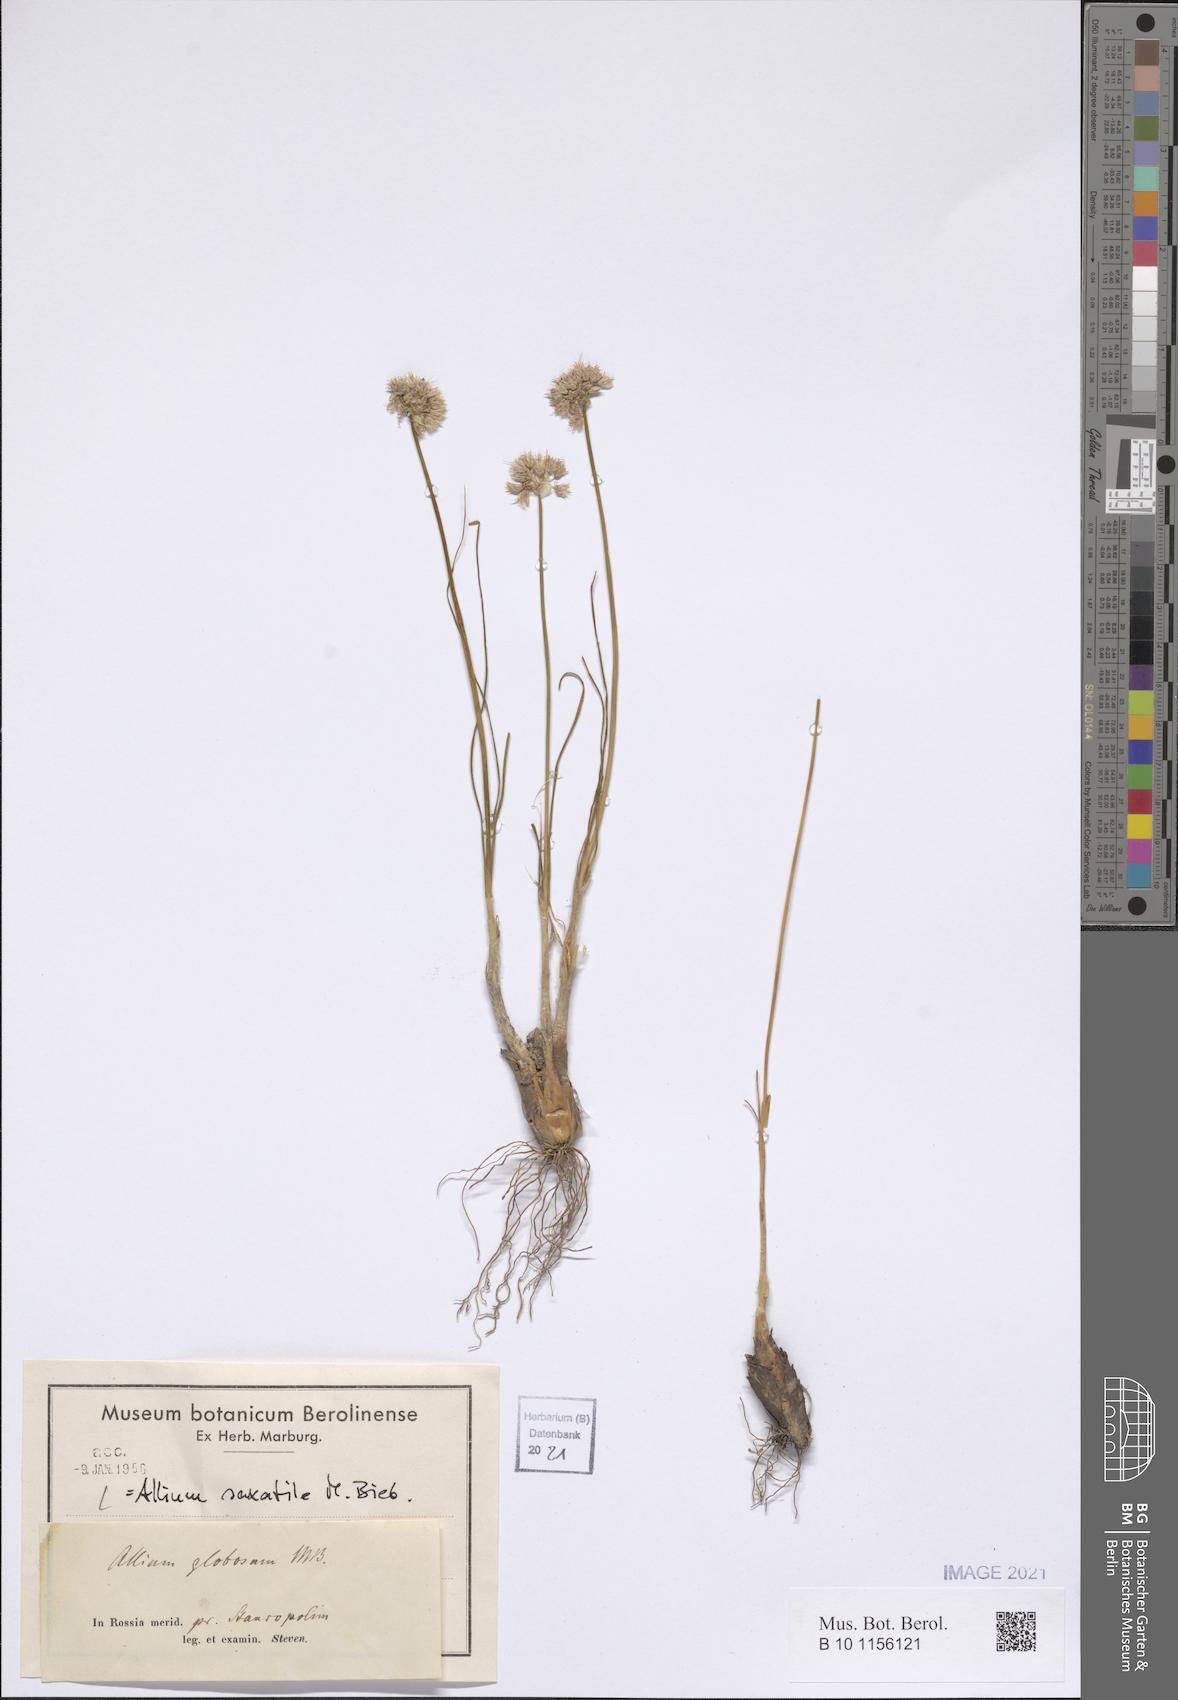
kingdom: Plantae
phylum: Tracheophyta
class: Liliopsida
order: Asparagales
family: Amaryllidaceae
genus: Allium
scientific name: Allium saxatile
